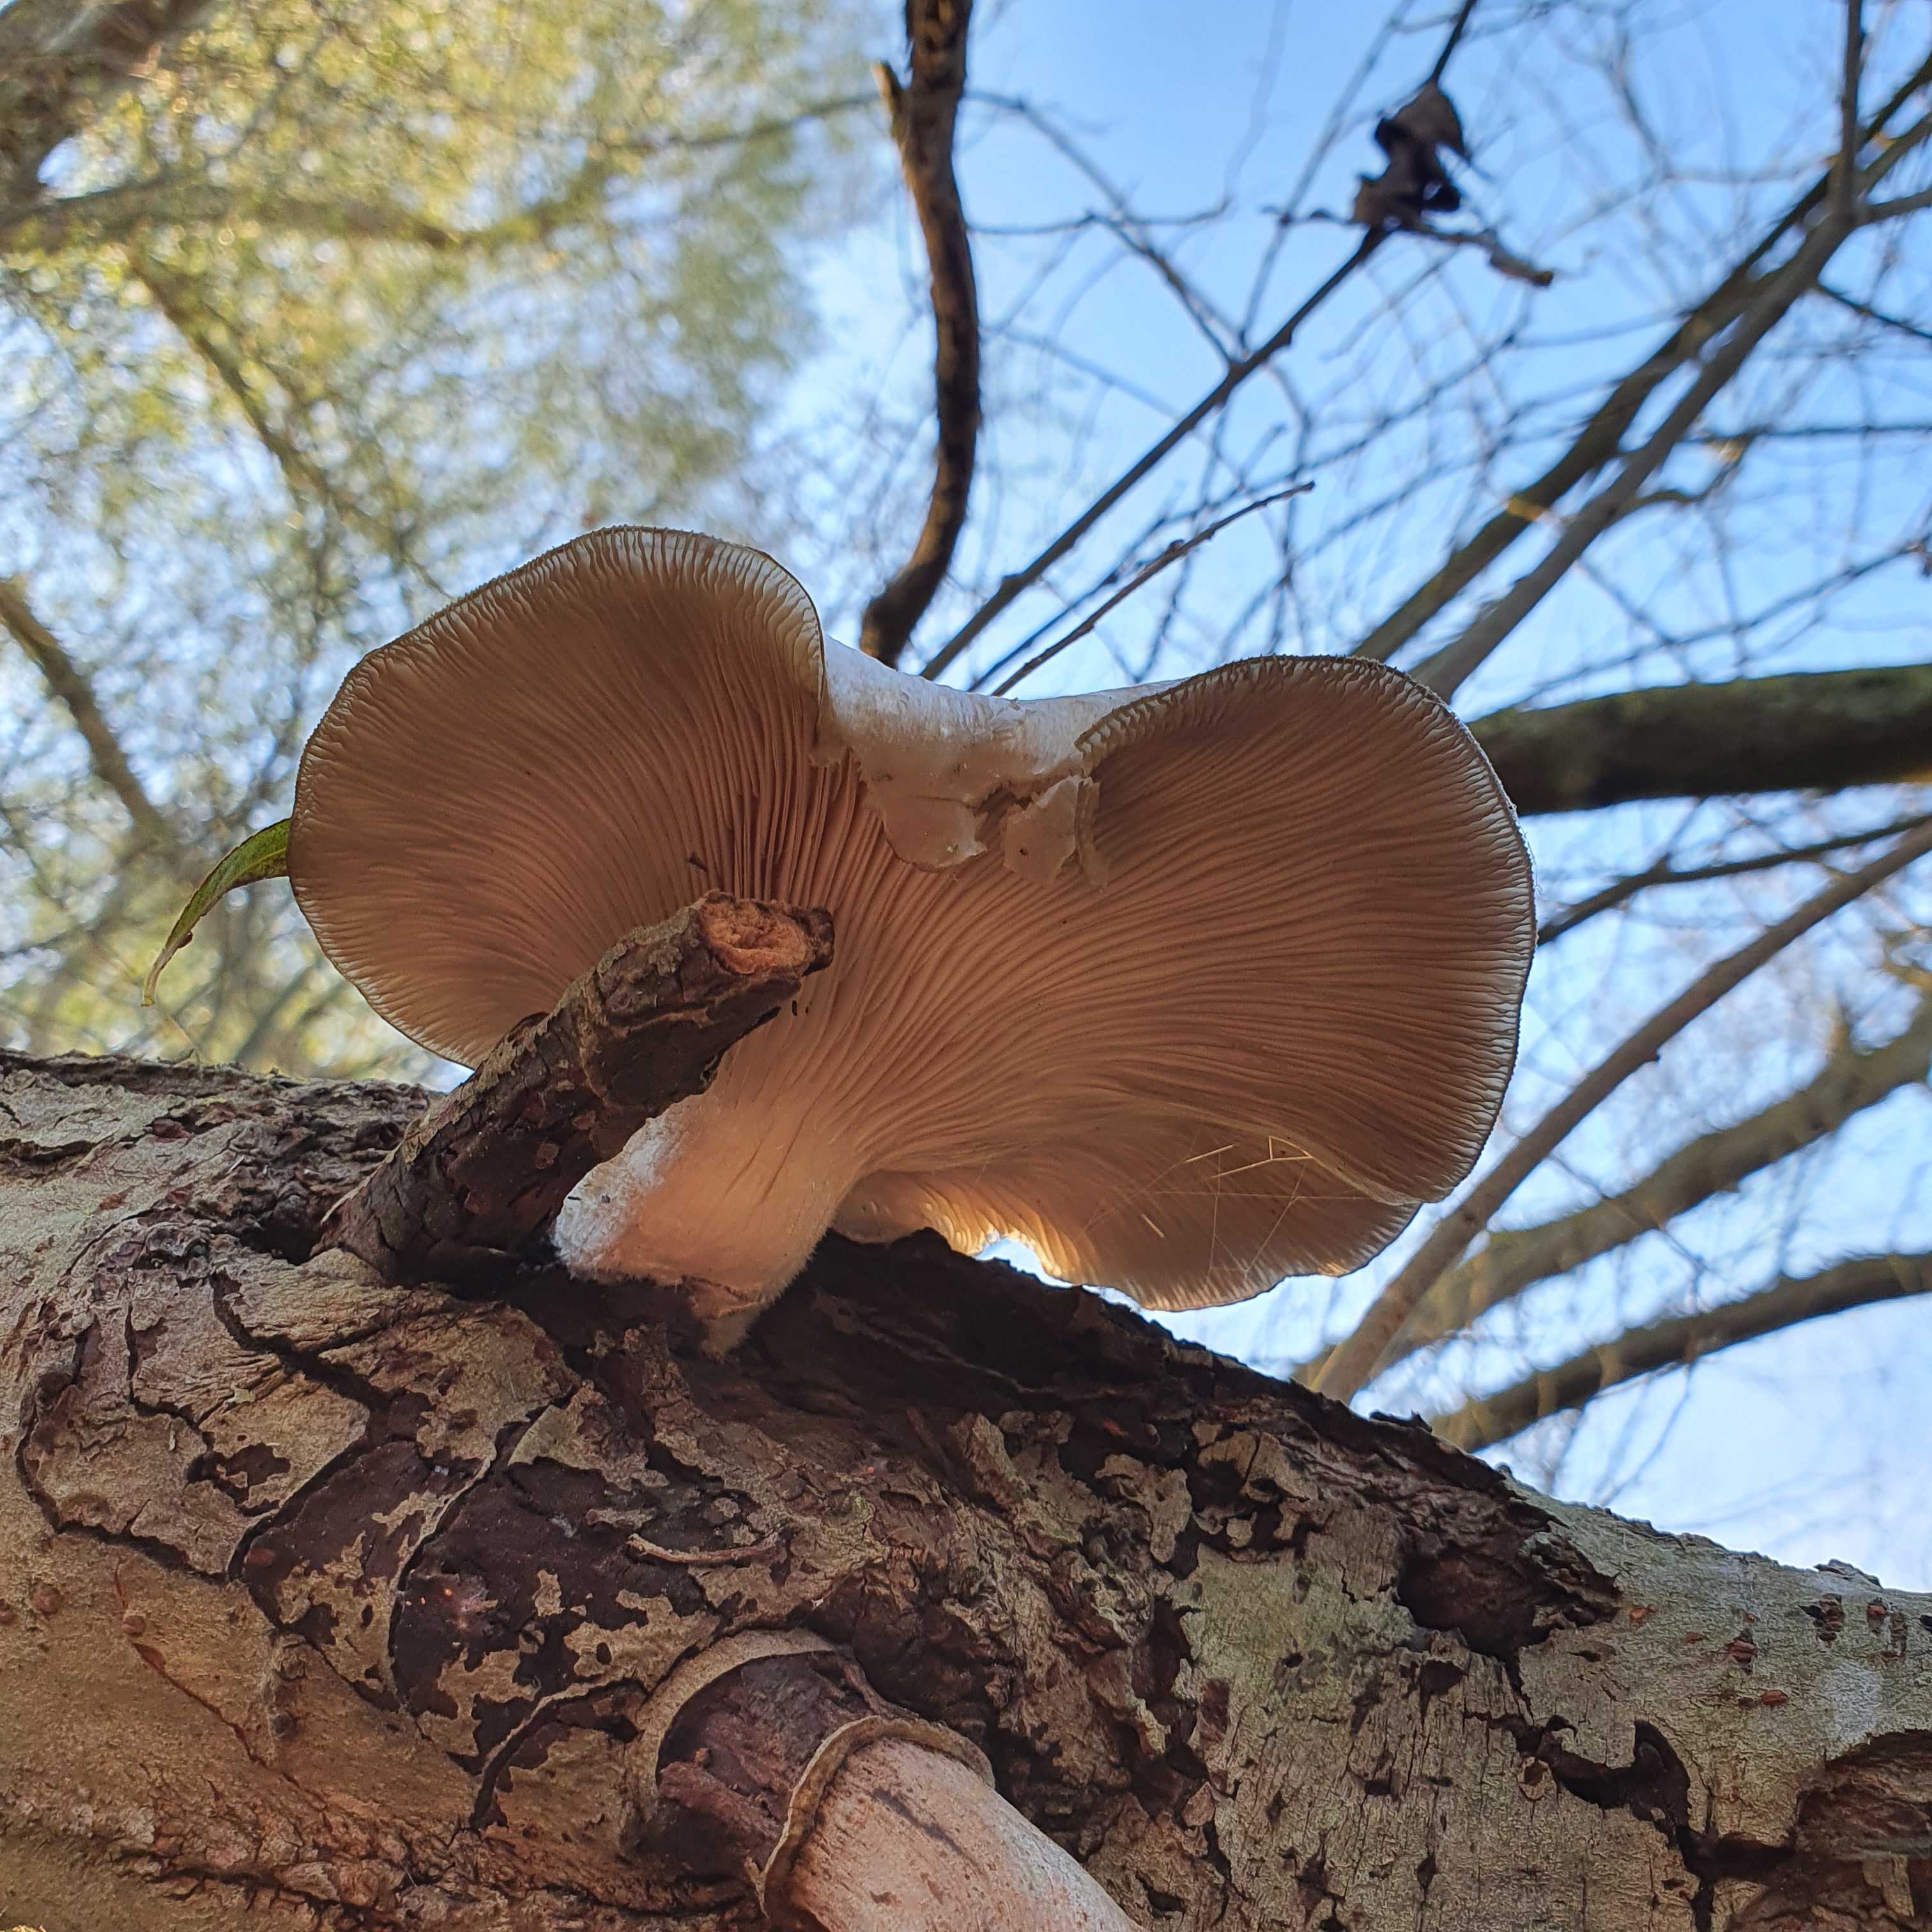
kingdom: Fungi
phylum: Basidiomycota
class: Agaricomycetes
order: Agaricales
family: Pleurotaceae
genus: Pleurotus
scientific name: Pleurotus ostreatus
